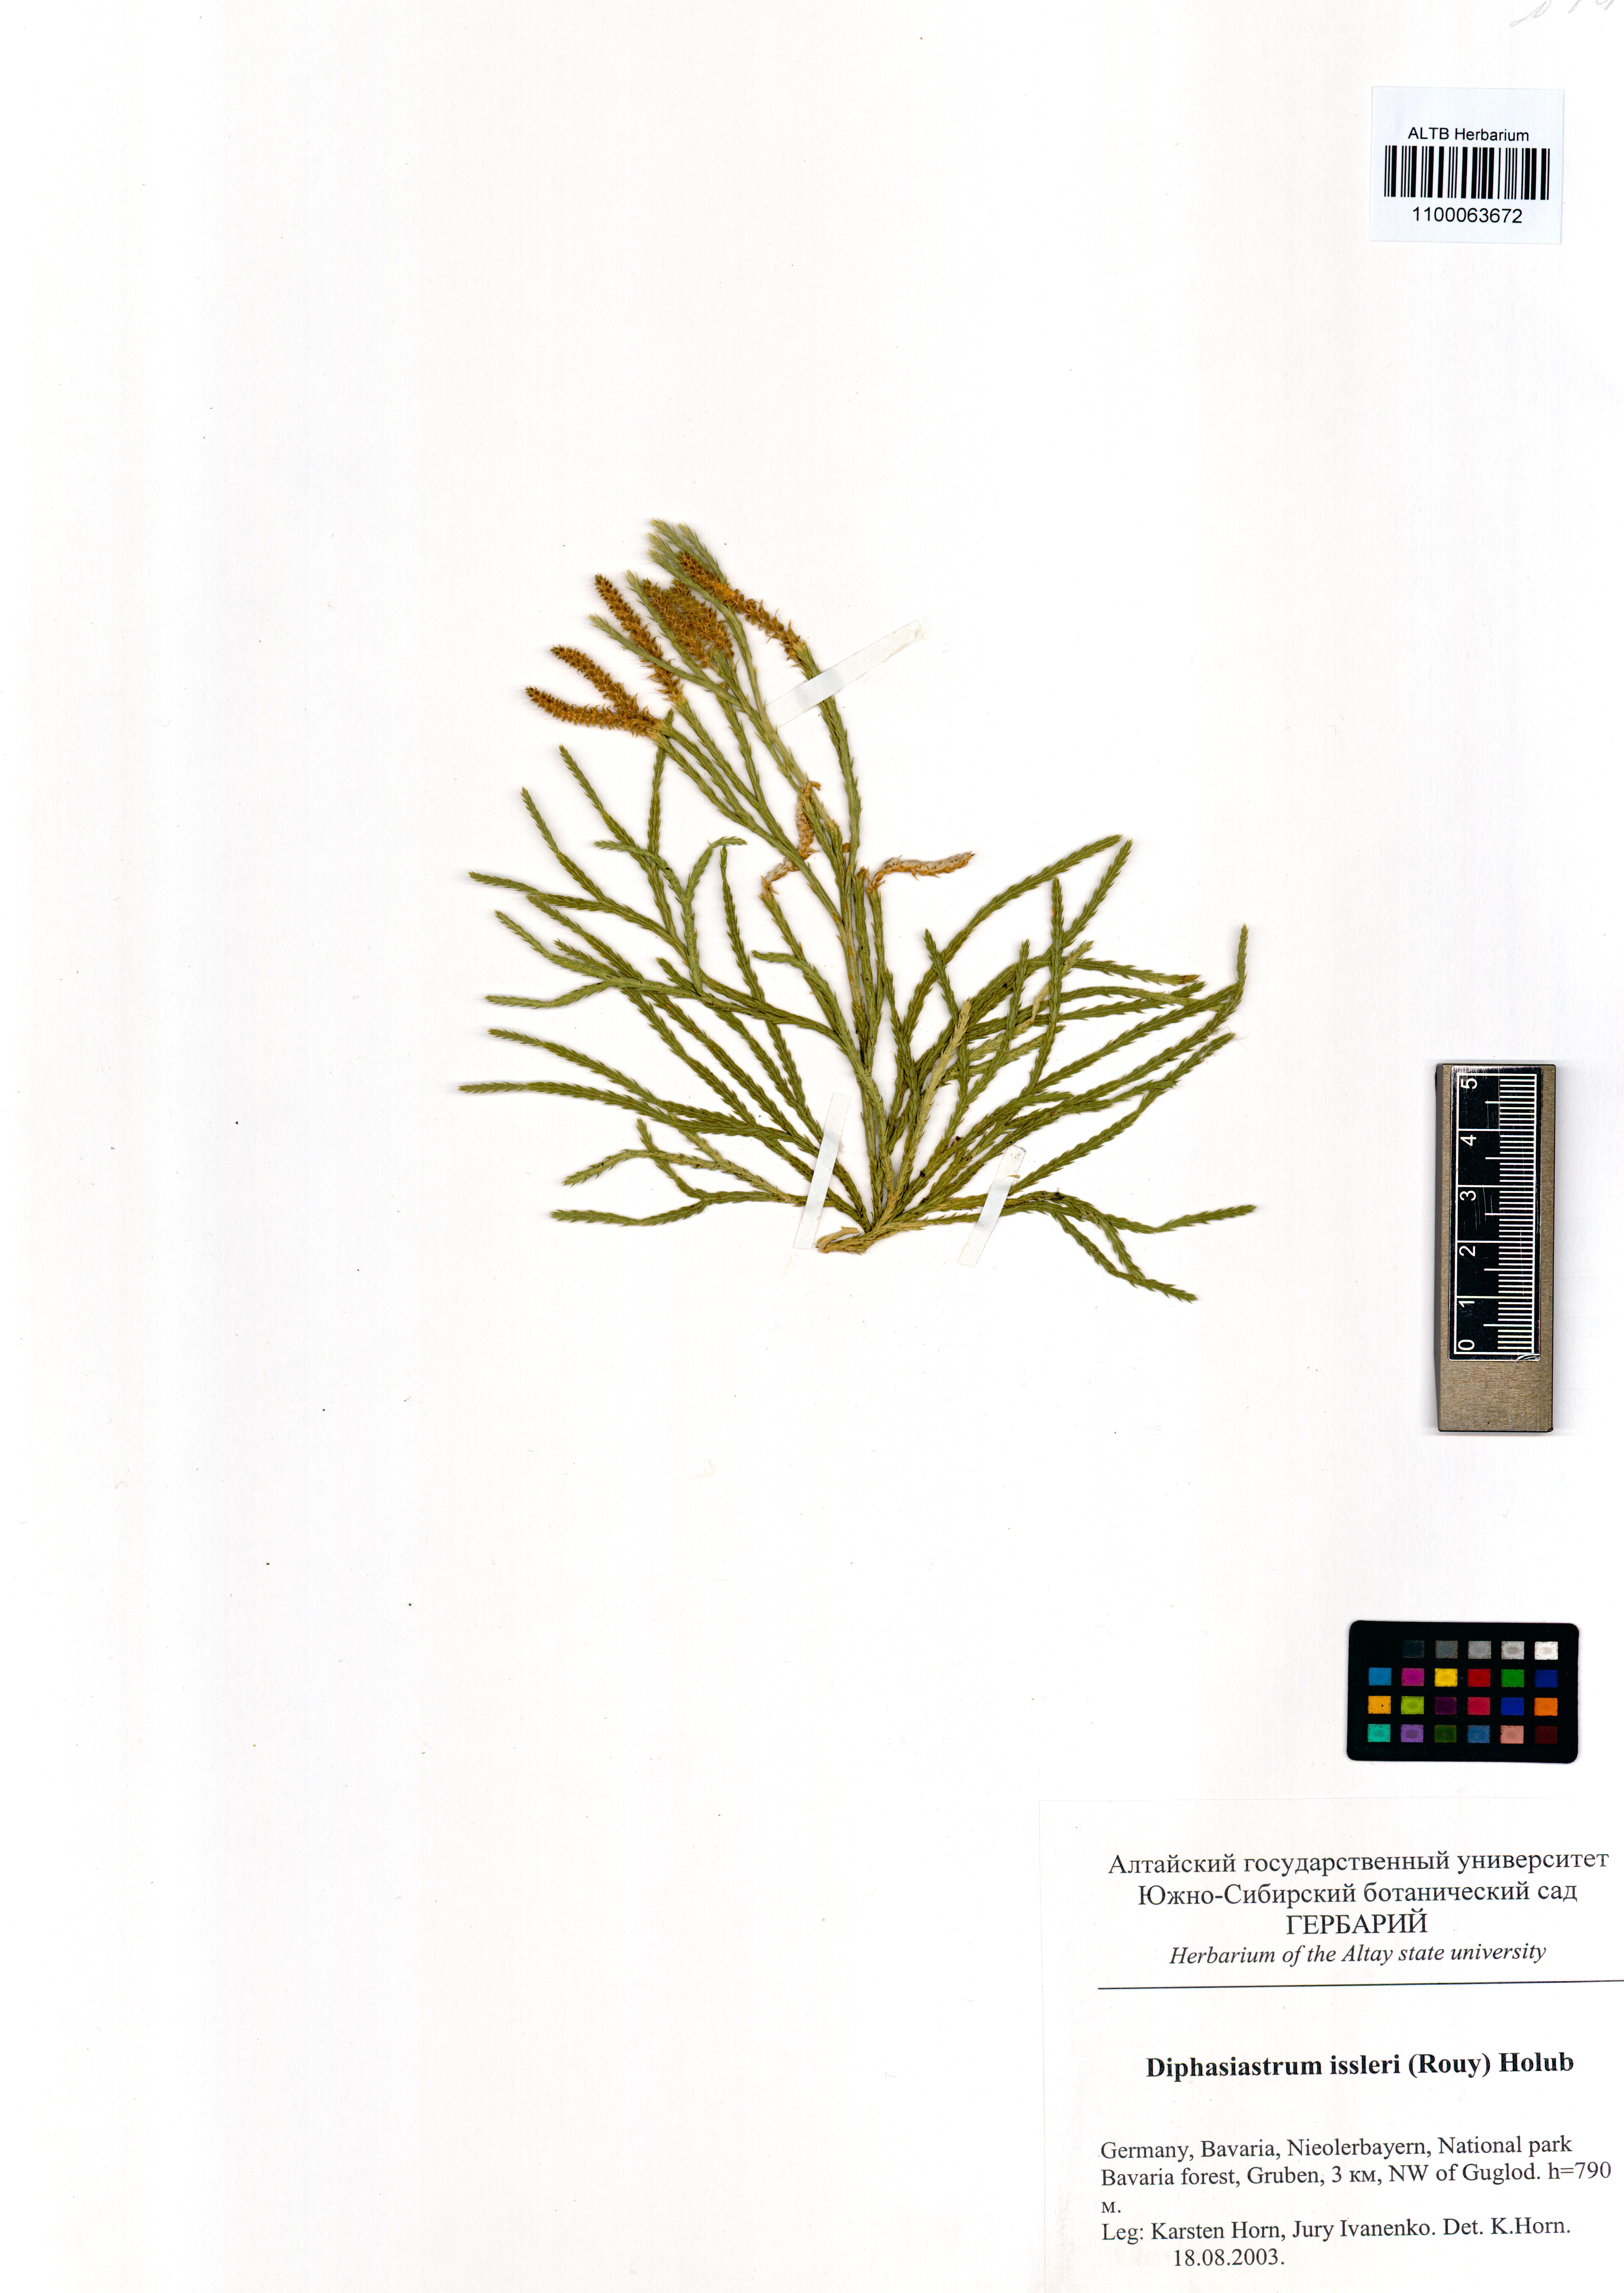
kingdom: Plantae
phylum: Tracheophyta
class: Lycopodiopsida
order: Lycopodiales
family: Lycopodiaceae
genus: Diphasiastrum
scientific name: Diphasiastrum issleri
